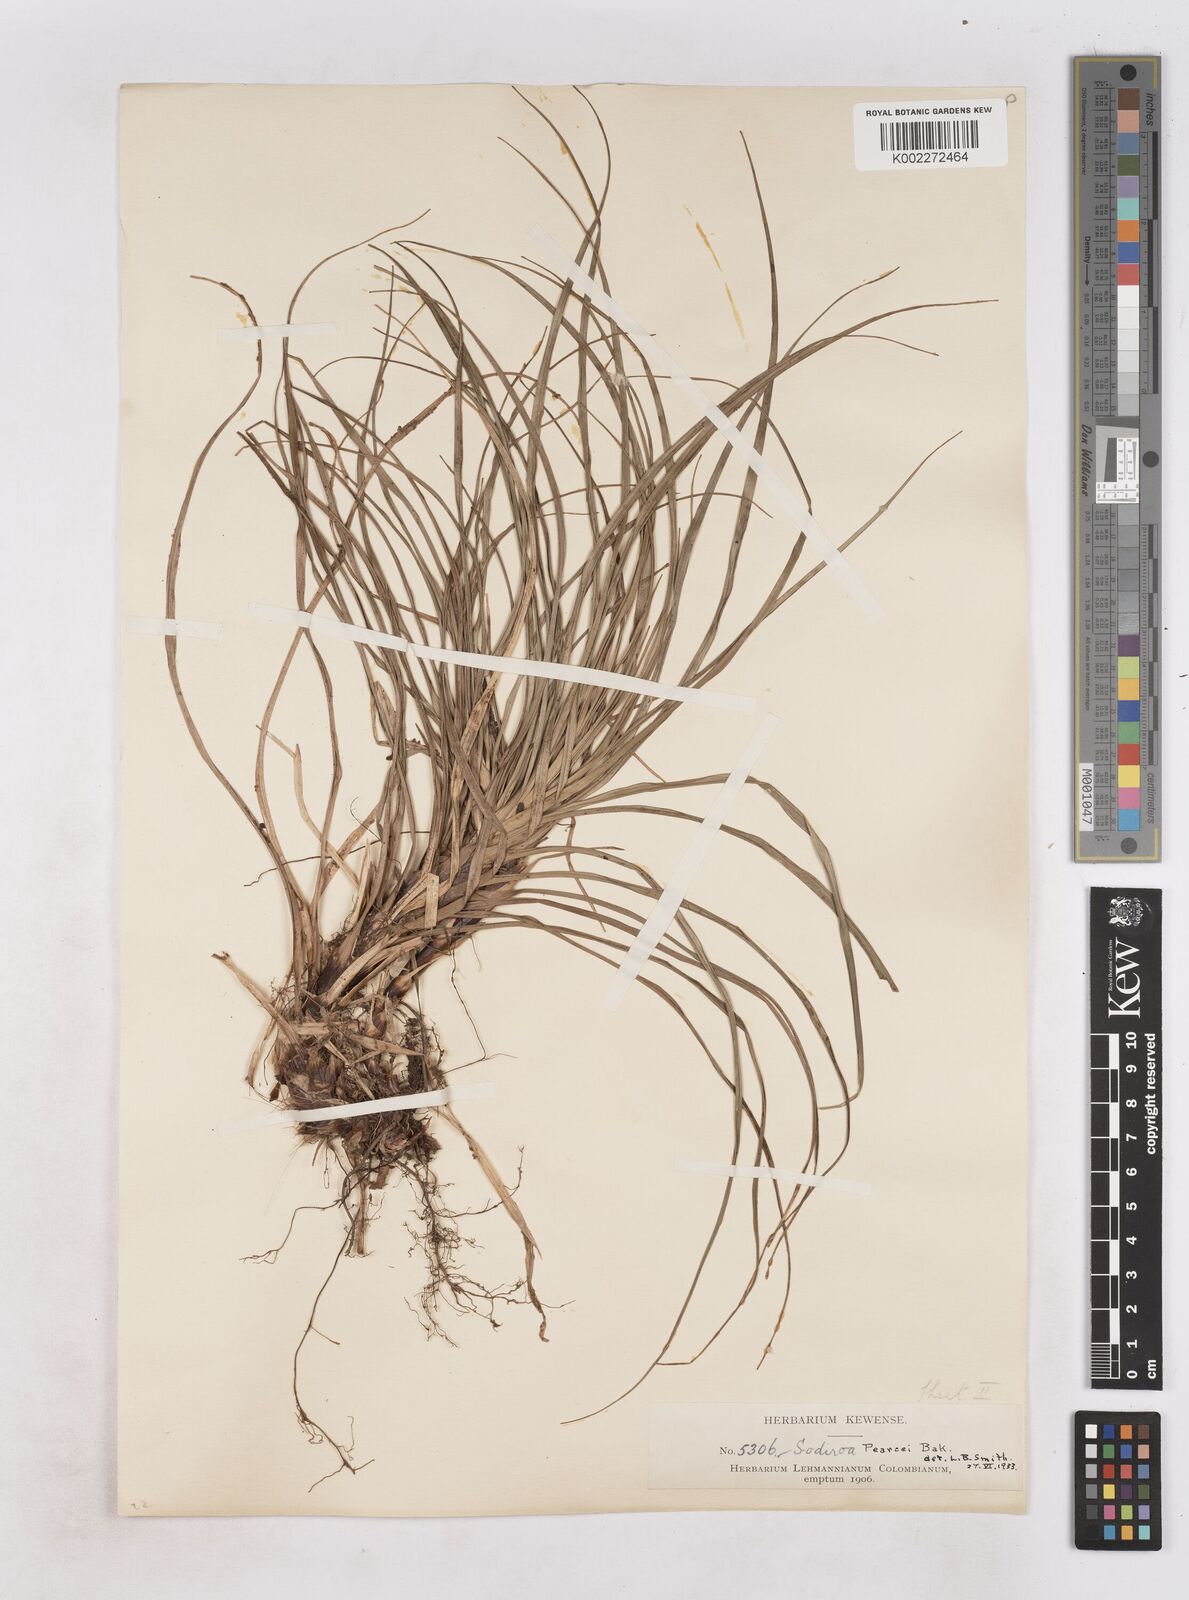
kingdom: Plantae
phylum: Tracheophyta
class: Liliopsida
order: Poales
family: Bromeliaceae
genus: Guzmania
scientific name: Guzmania pearcei
